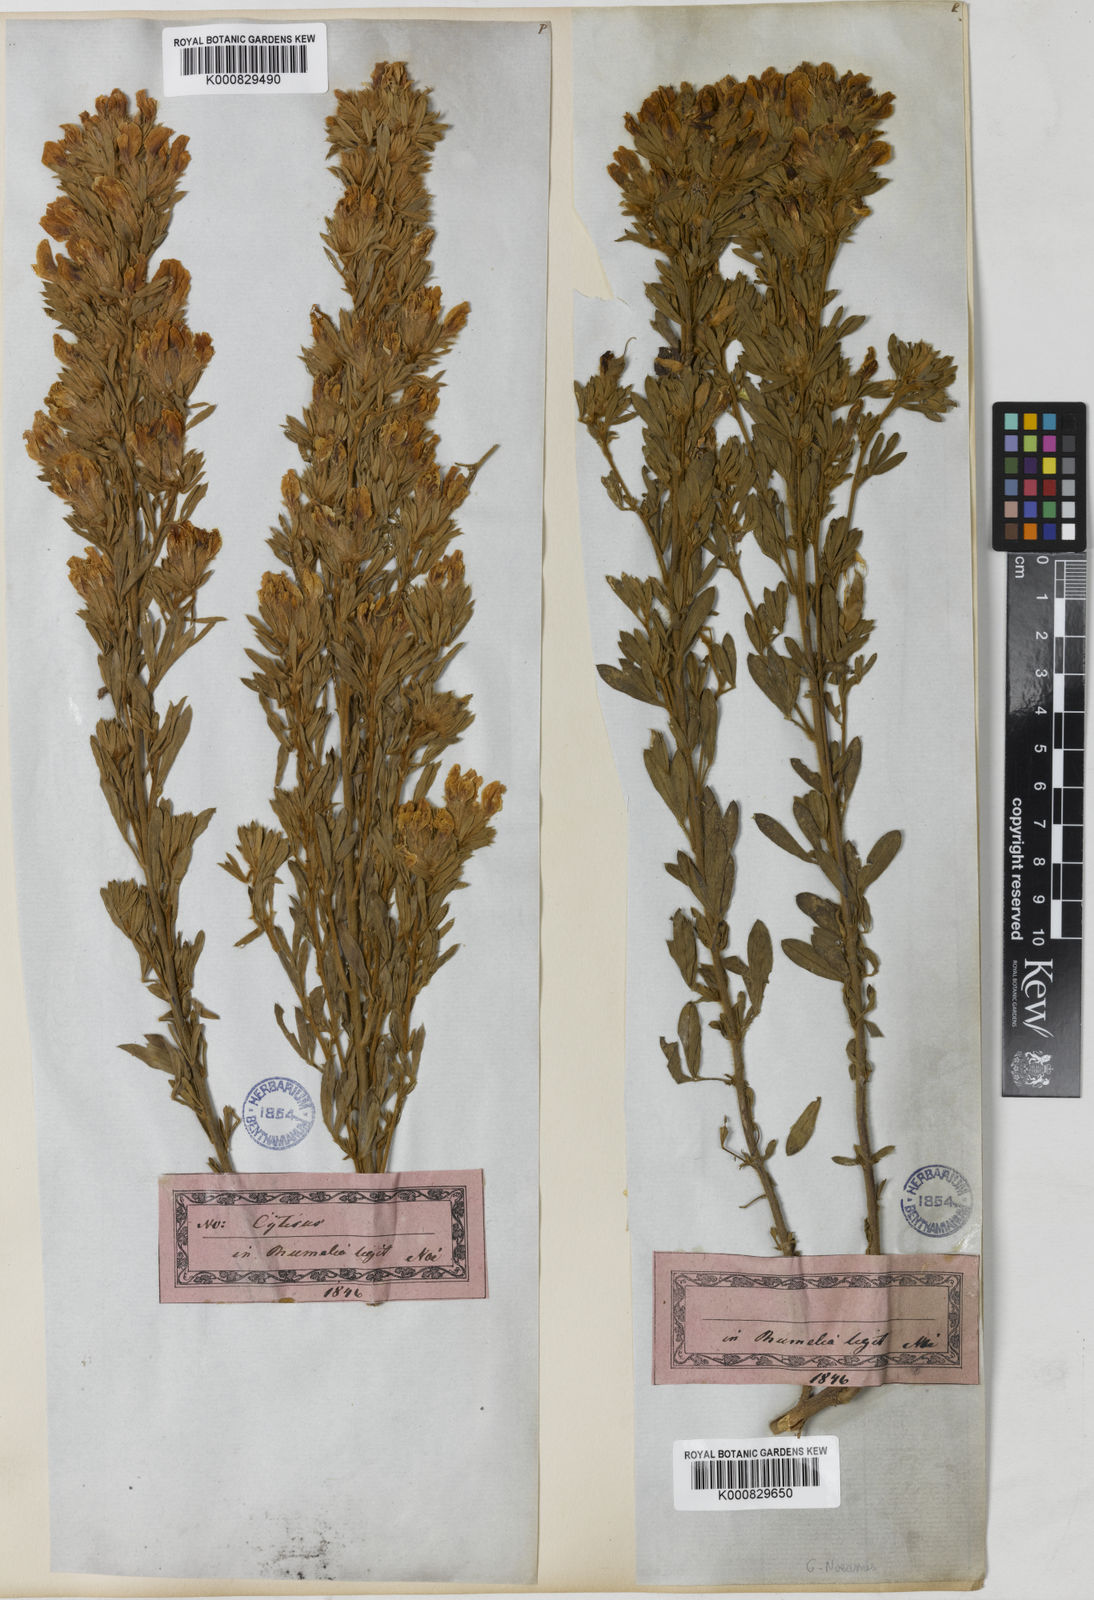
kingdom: Plantae
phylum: Tracheophyta
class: Magnoliopsida
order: Fabales
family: Fabaceae
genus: Cytisus
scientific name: Cytisus
